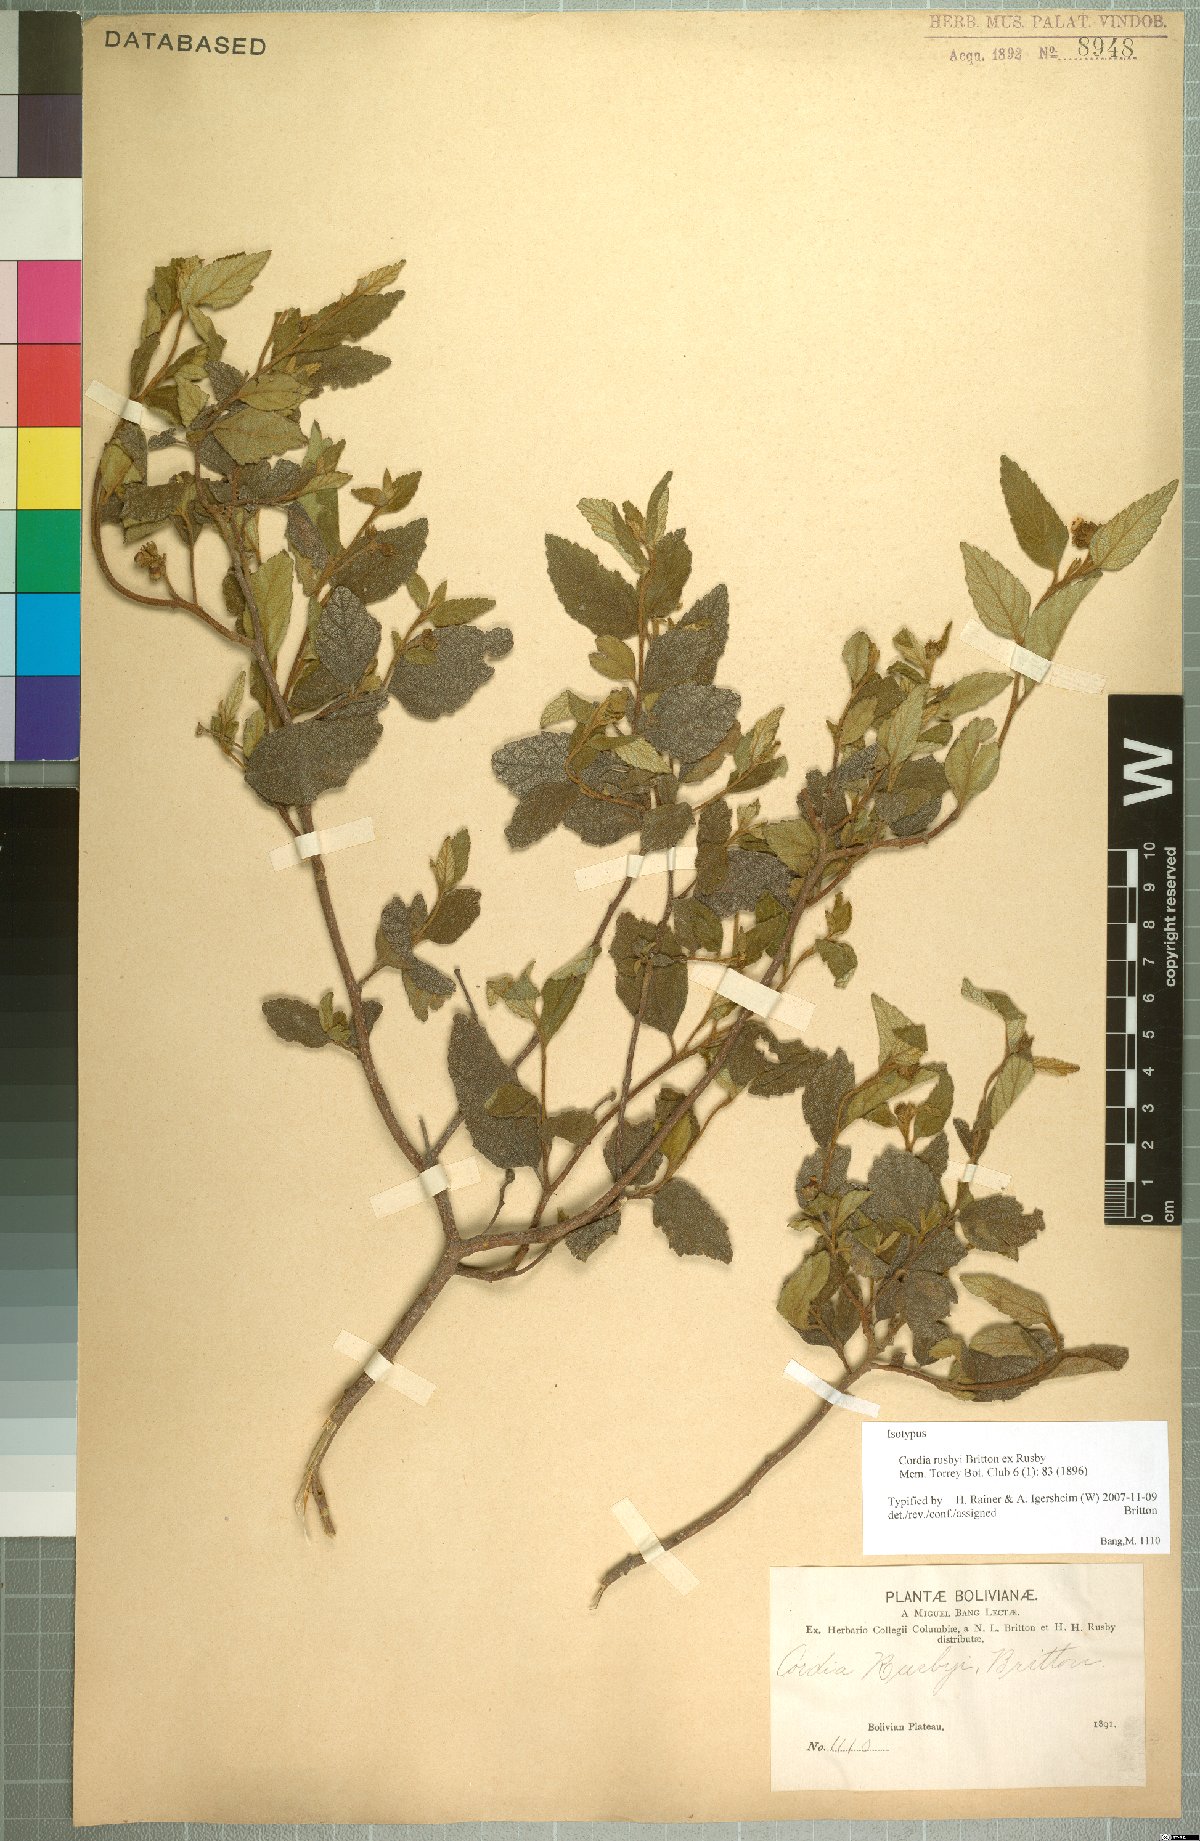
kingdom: Plantae
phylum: Tracheophyta
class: Magnoliopsida
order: Boraginales
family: Cordiaceae
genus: Cordia
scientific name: Cordia alliodora
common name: Spanish elm
